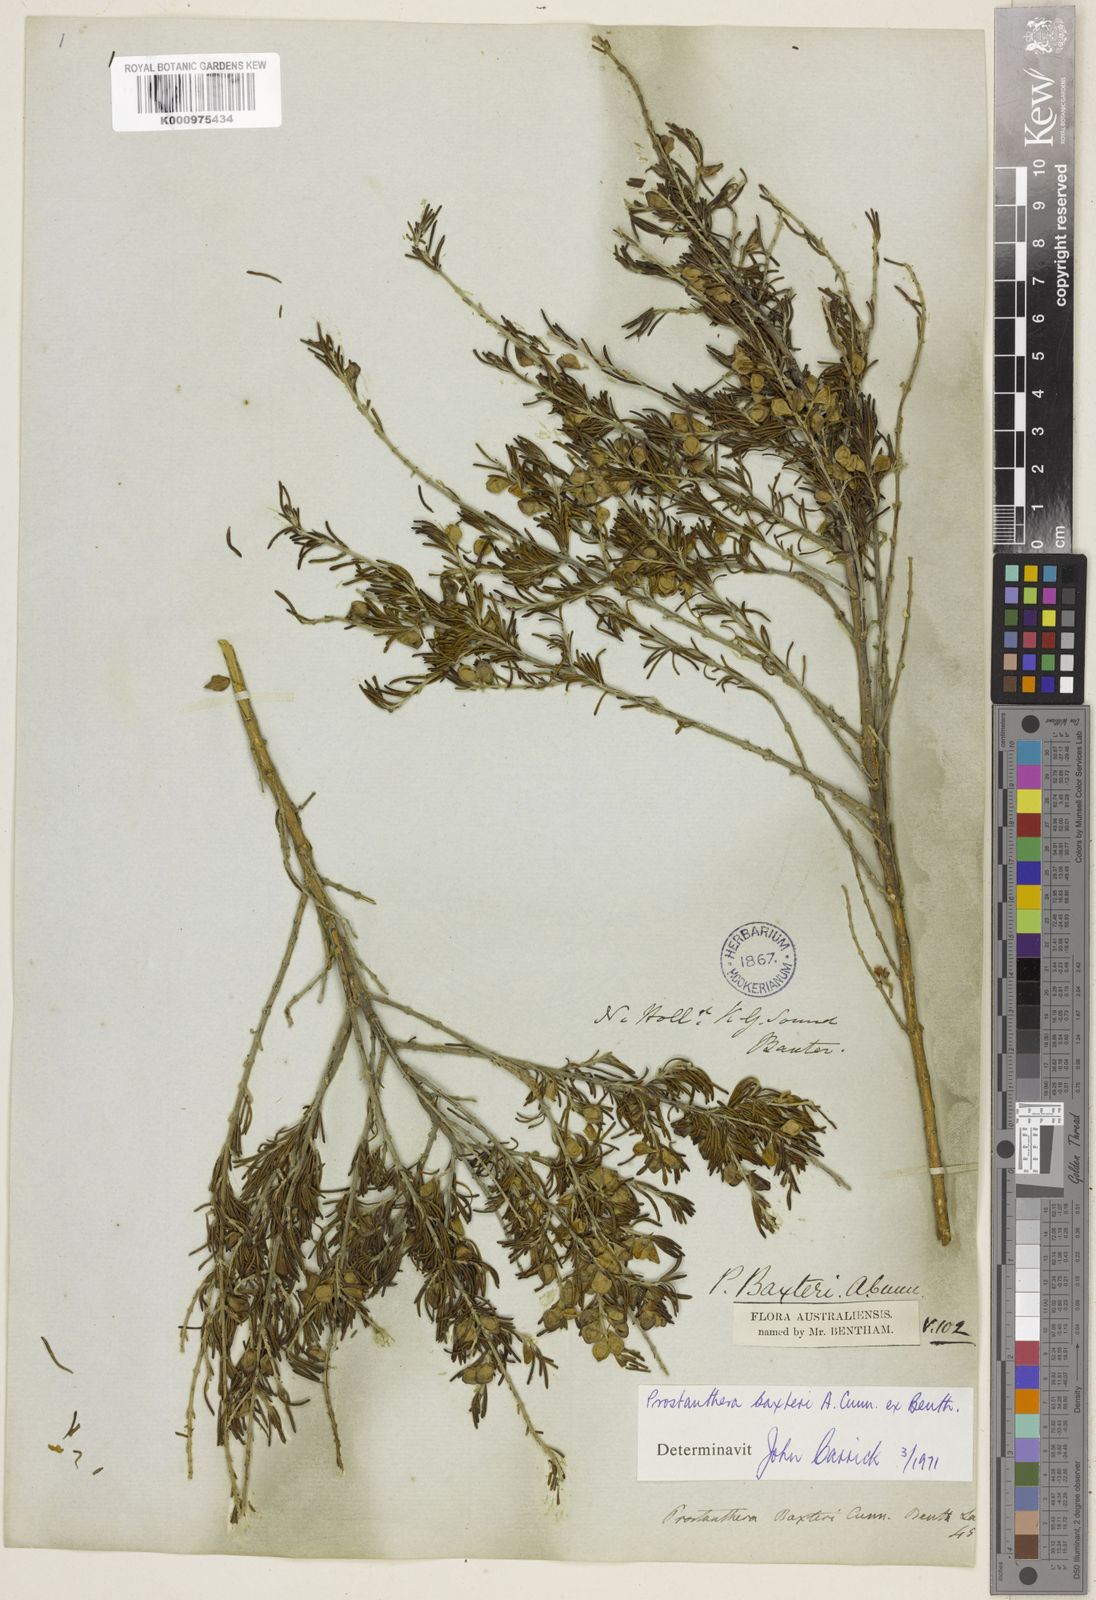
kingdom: Plantae
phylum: Tracheophyta
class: Magnoliopsida
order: Lamiales
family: Lamiaceae
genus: Prostanthera
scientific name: Prostanthera baxteri
